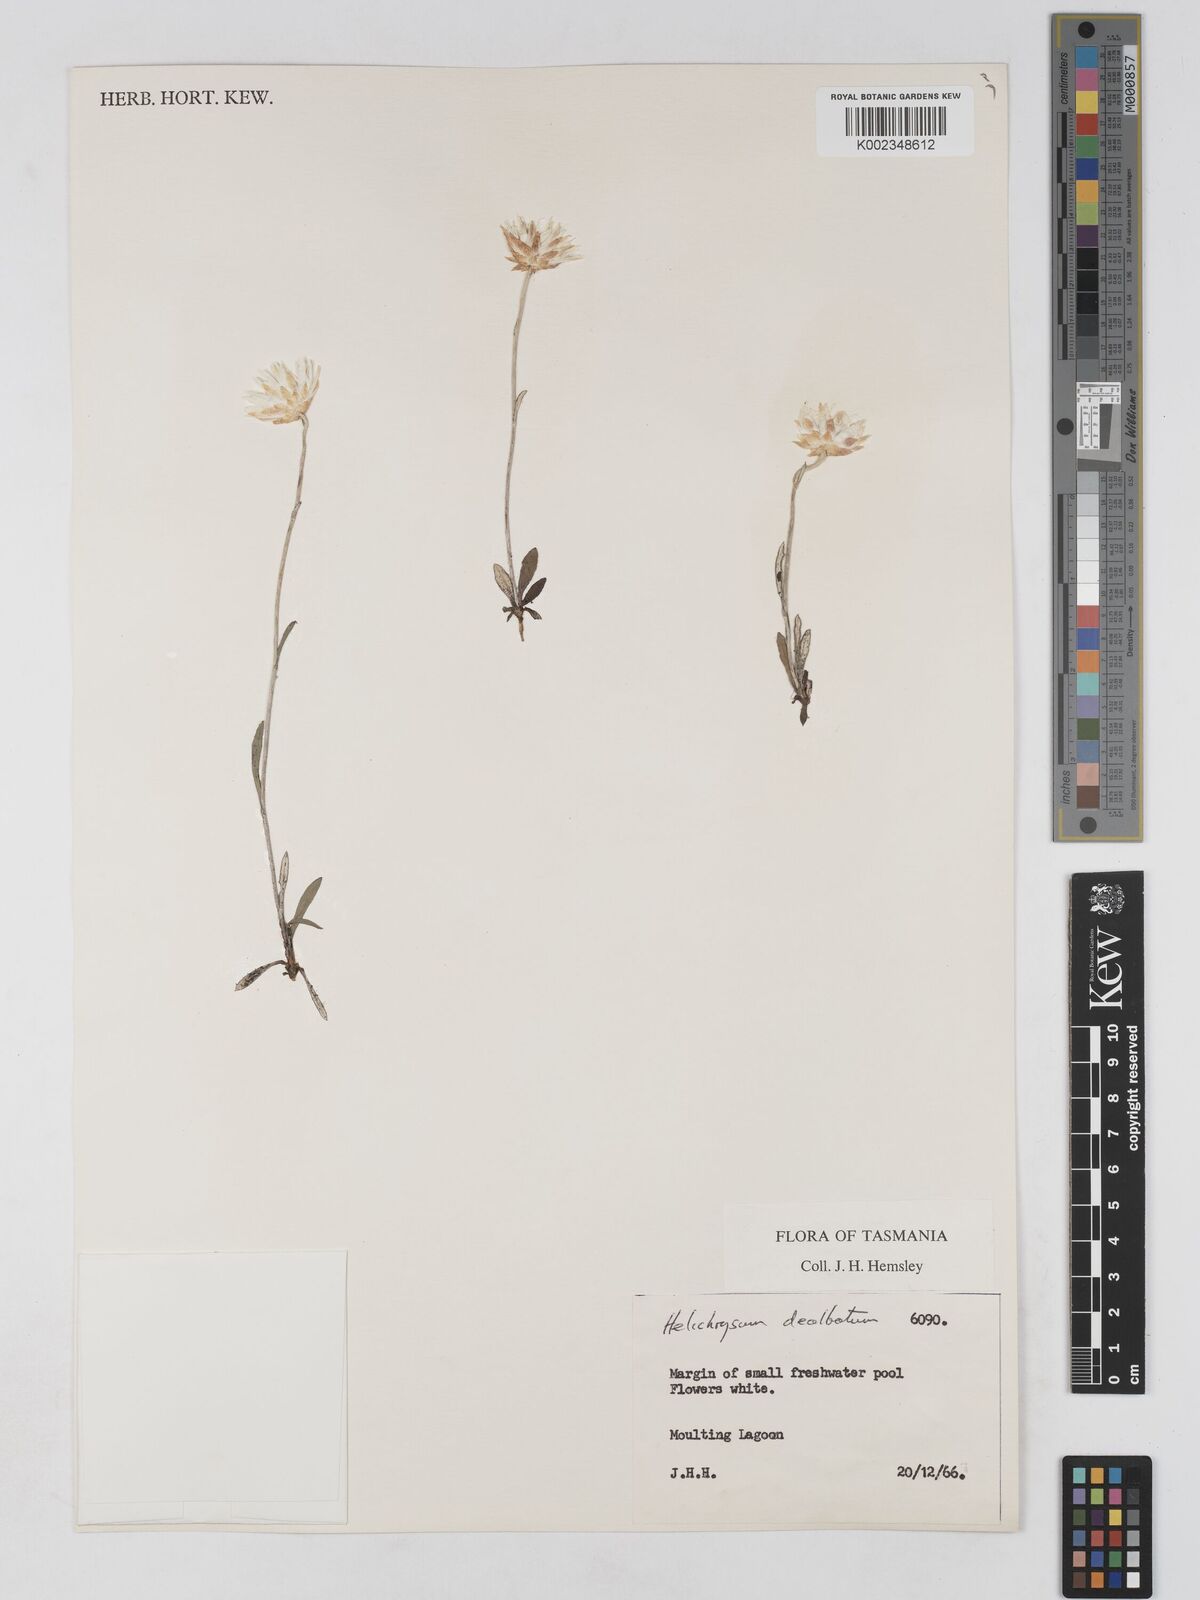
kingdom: Plantae
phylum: Tracheophyta
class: Magnoliopsida
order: Asterales
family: Asteraceae
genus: Argentipallium
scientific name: Argentipallium dealbatum
